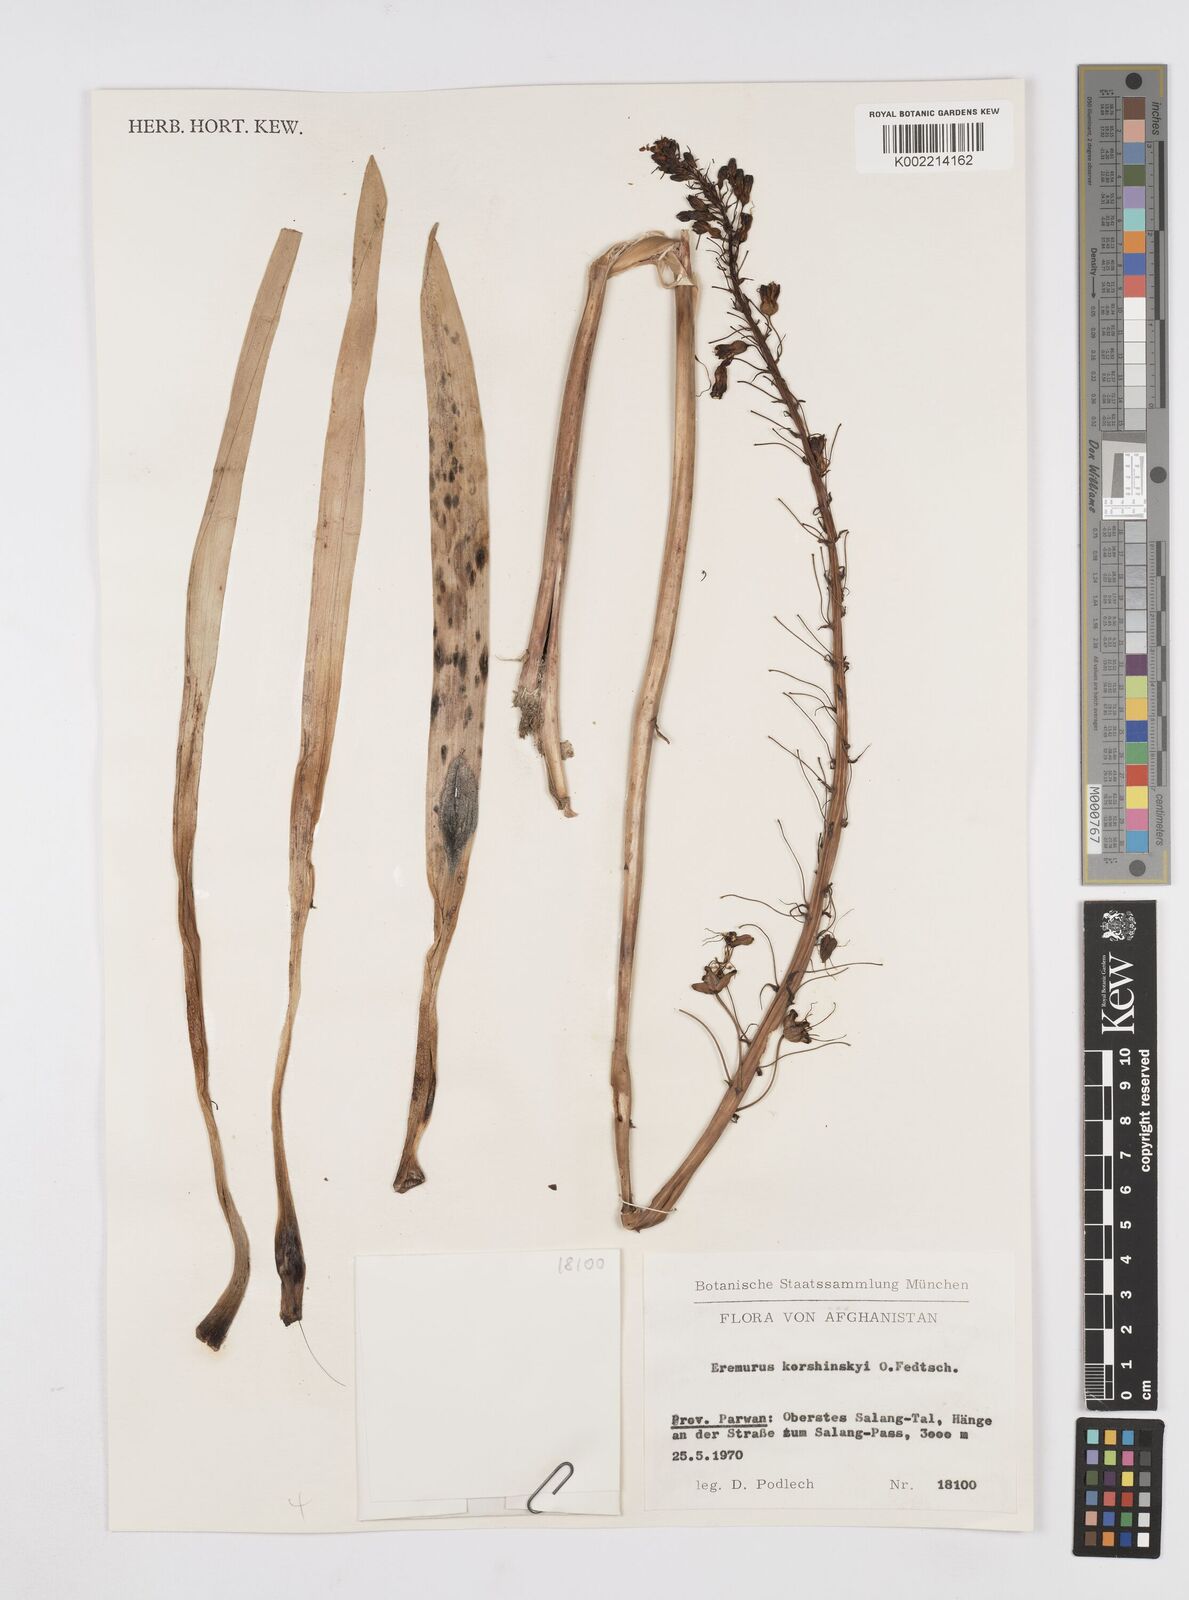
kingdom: Plantae
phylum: Tracheophyta
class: Liliopsida
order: Asparagales
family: Asphodelaceae
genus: Eremurus
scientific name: Eremurus korshinskyi
